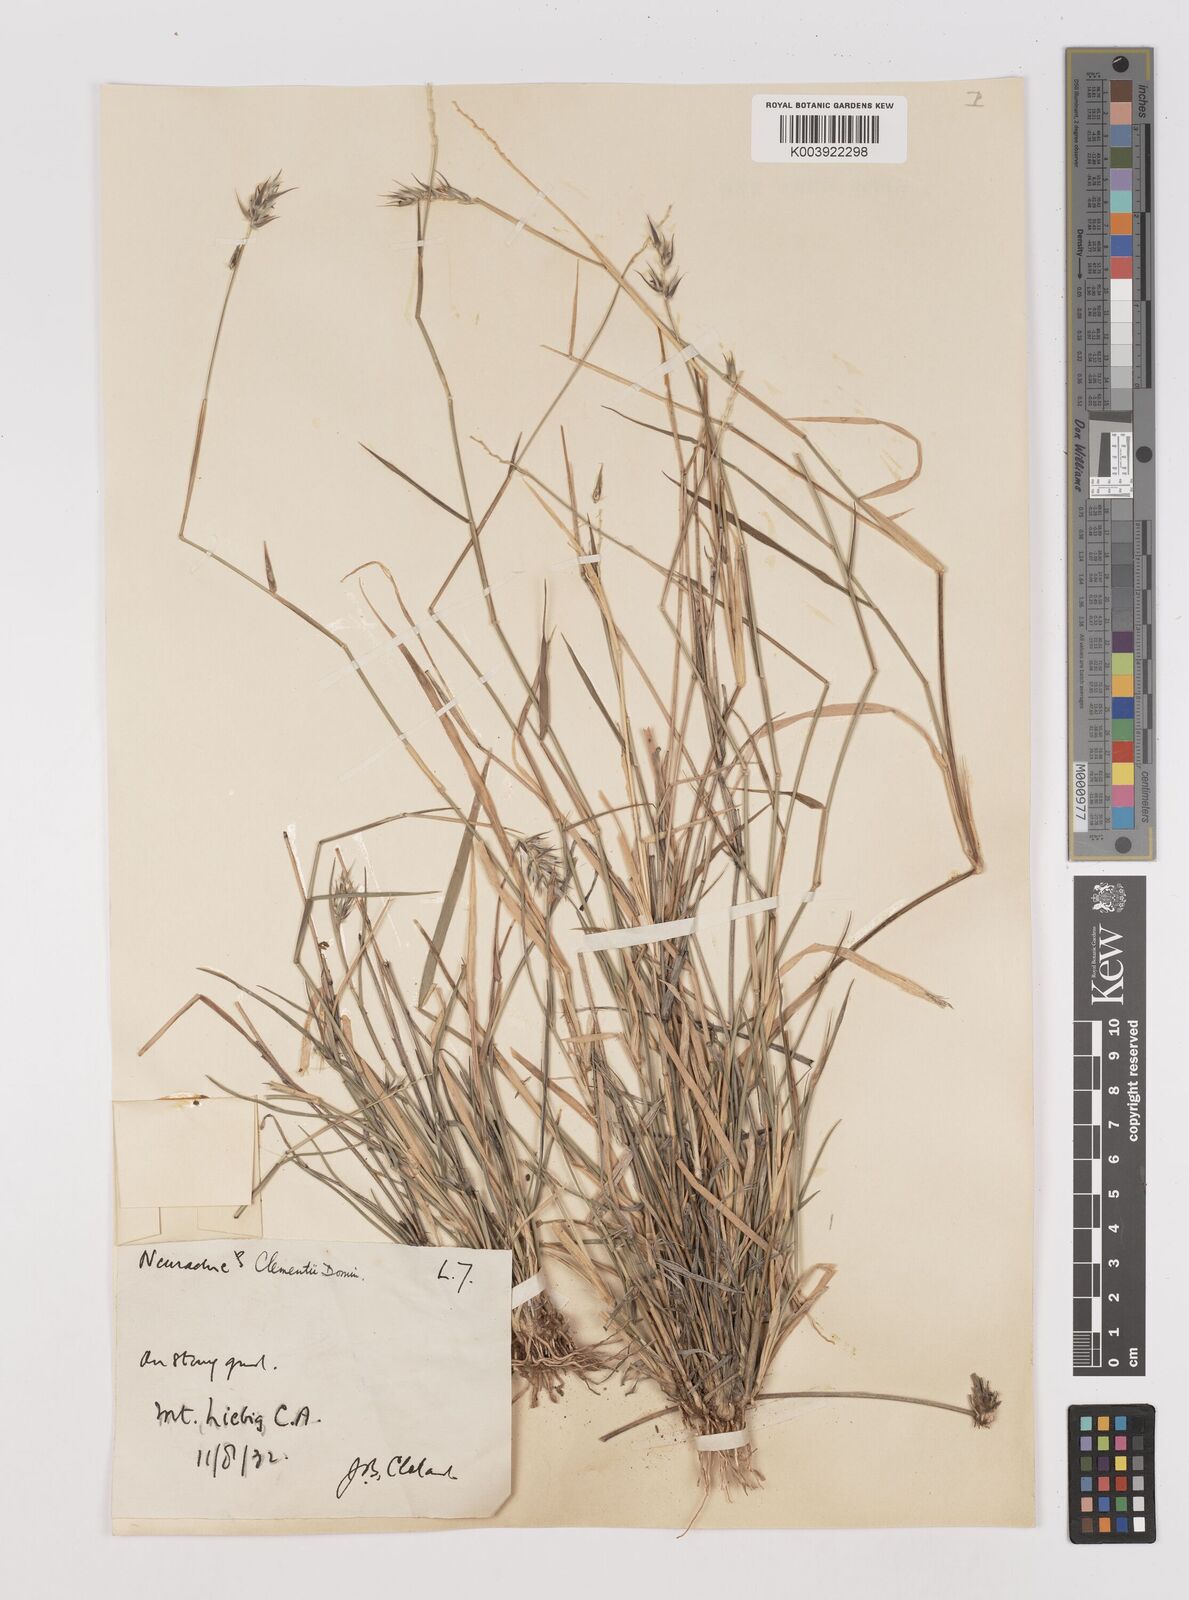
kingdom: Plantae
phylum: Tracheophyta
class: Liliopsida
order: Poales
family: Poaceae
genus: Neurachne
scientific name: Neurachne muelleri
